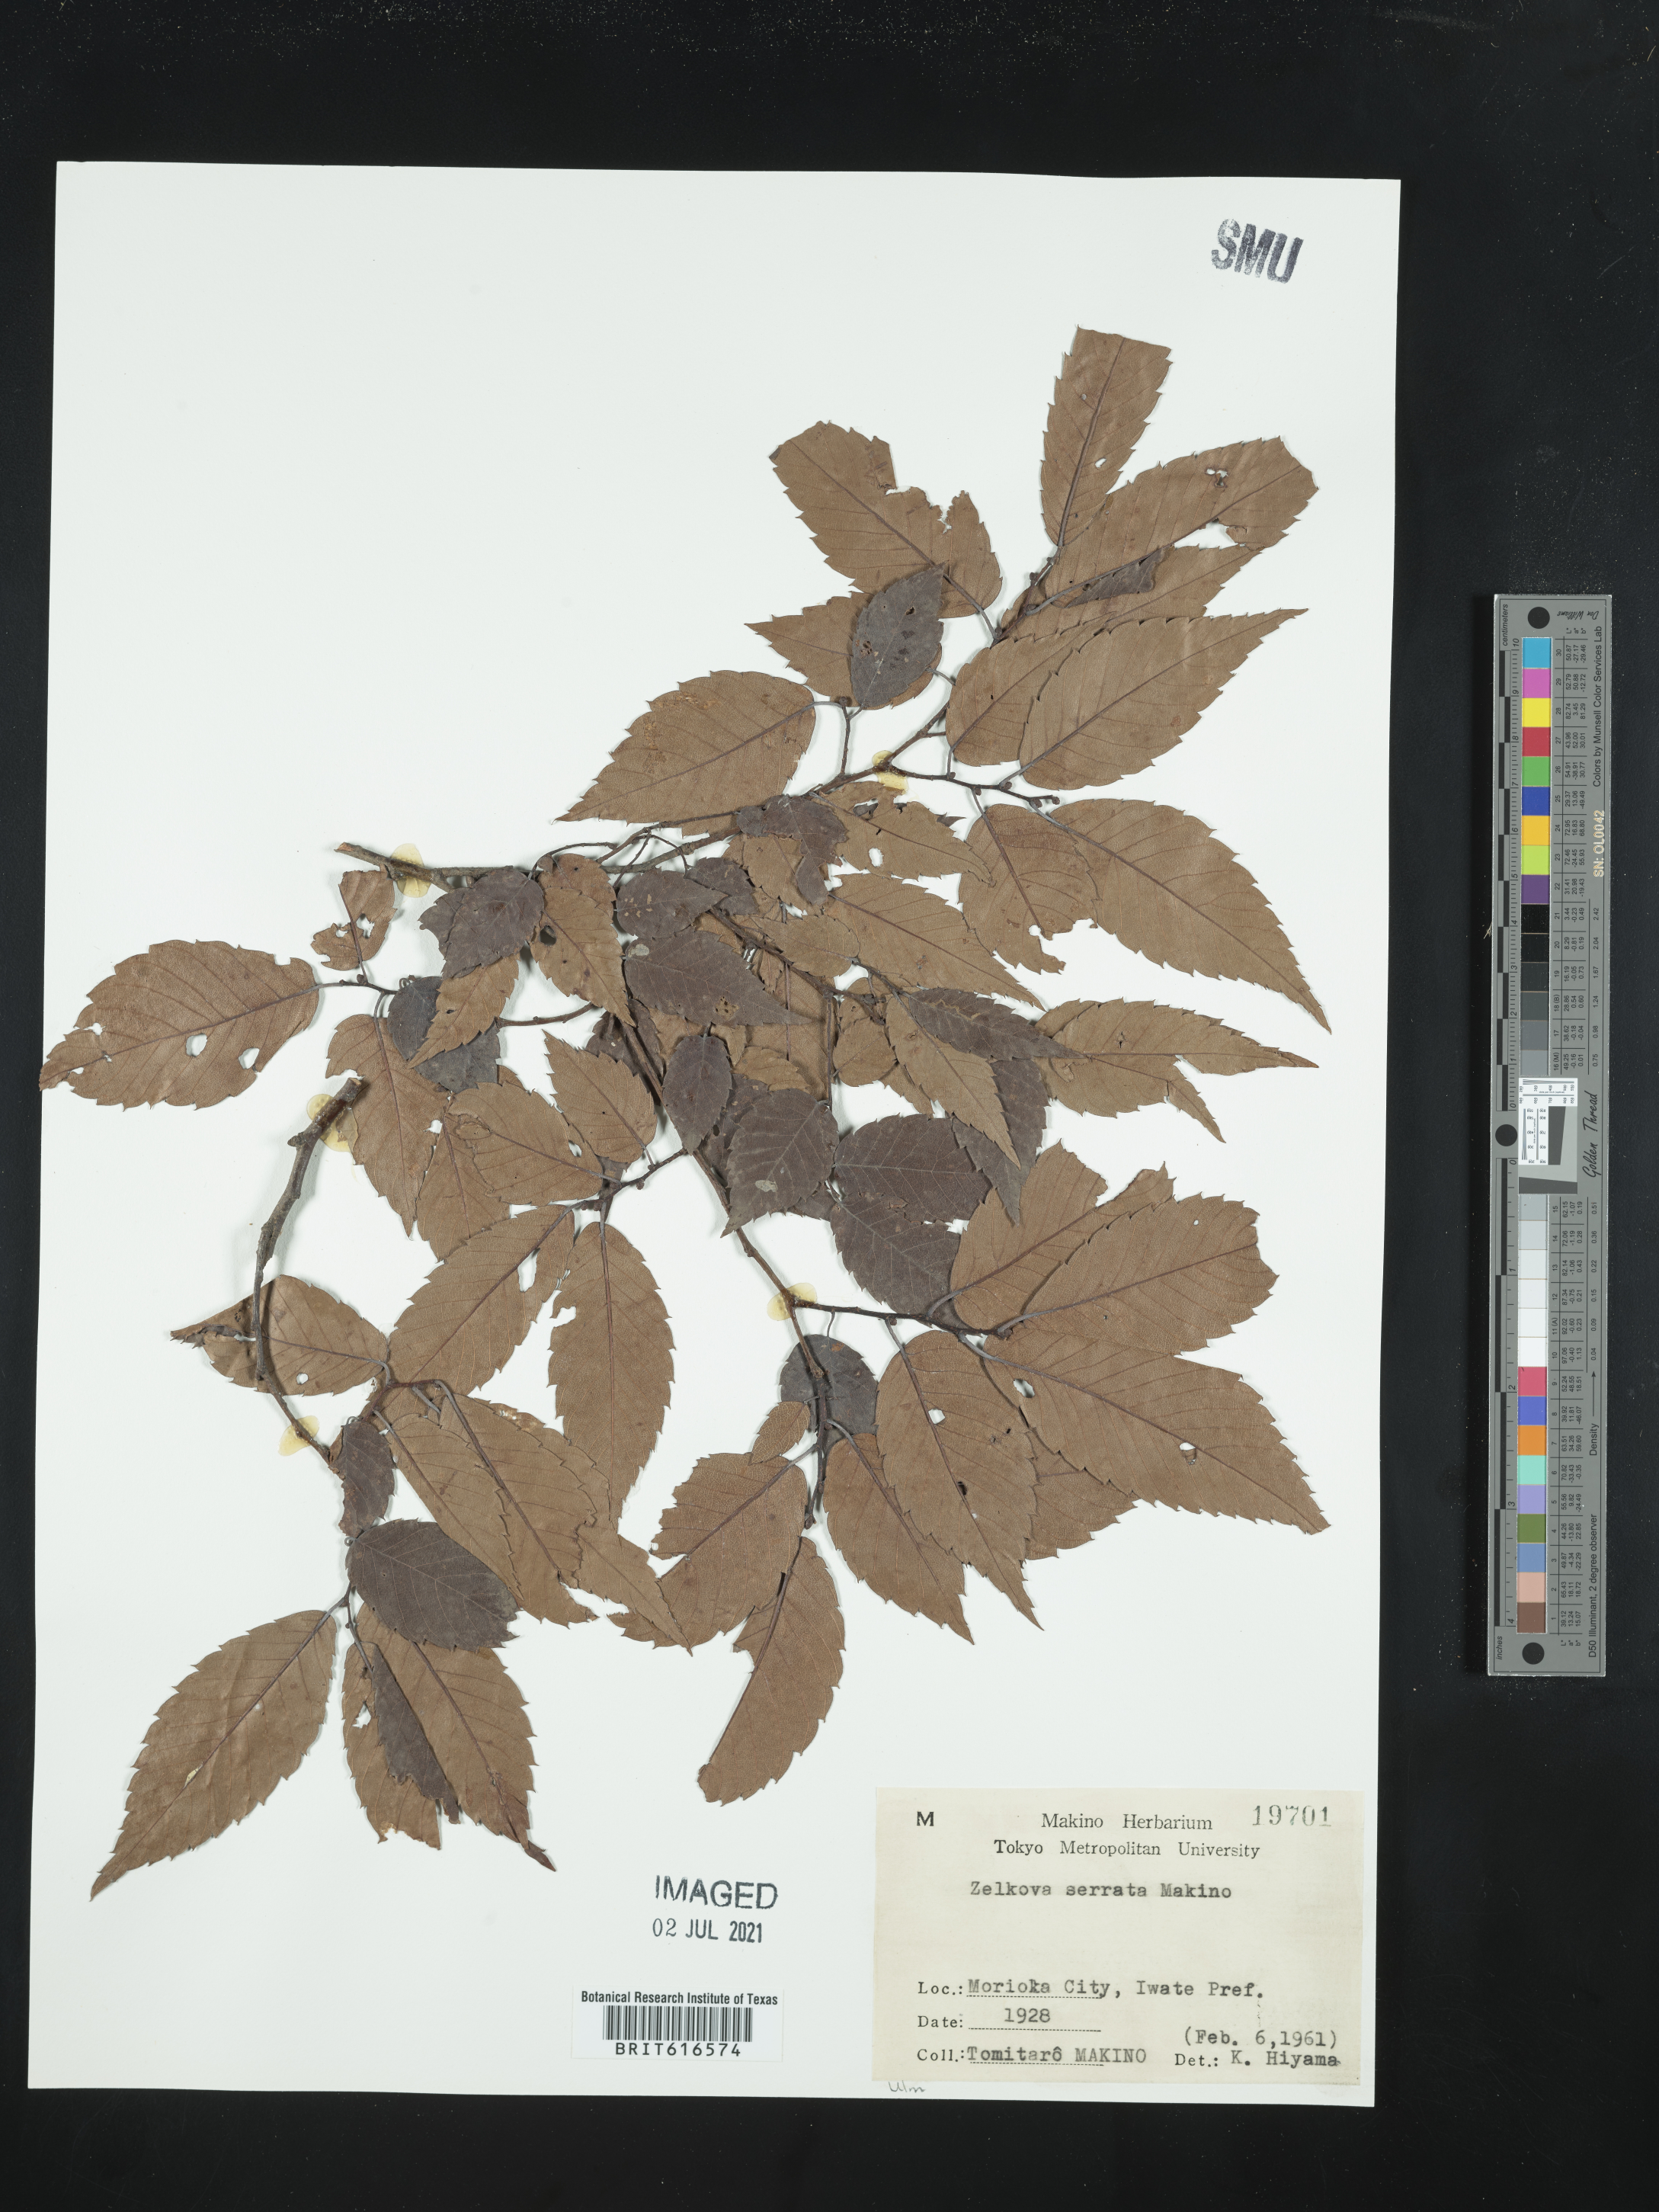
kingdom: Plantae
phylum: Tracheophyta
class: Magnoliopsida
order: Rosales
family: Ulmaceae
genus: Zelkova
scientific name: Zelkova serrata
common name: Japanese zelkova
